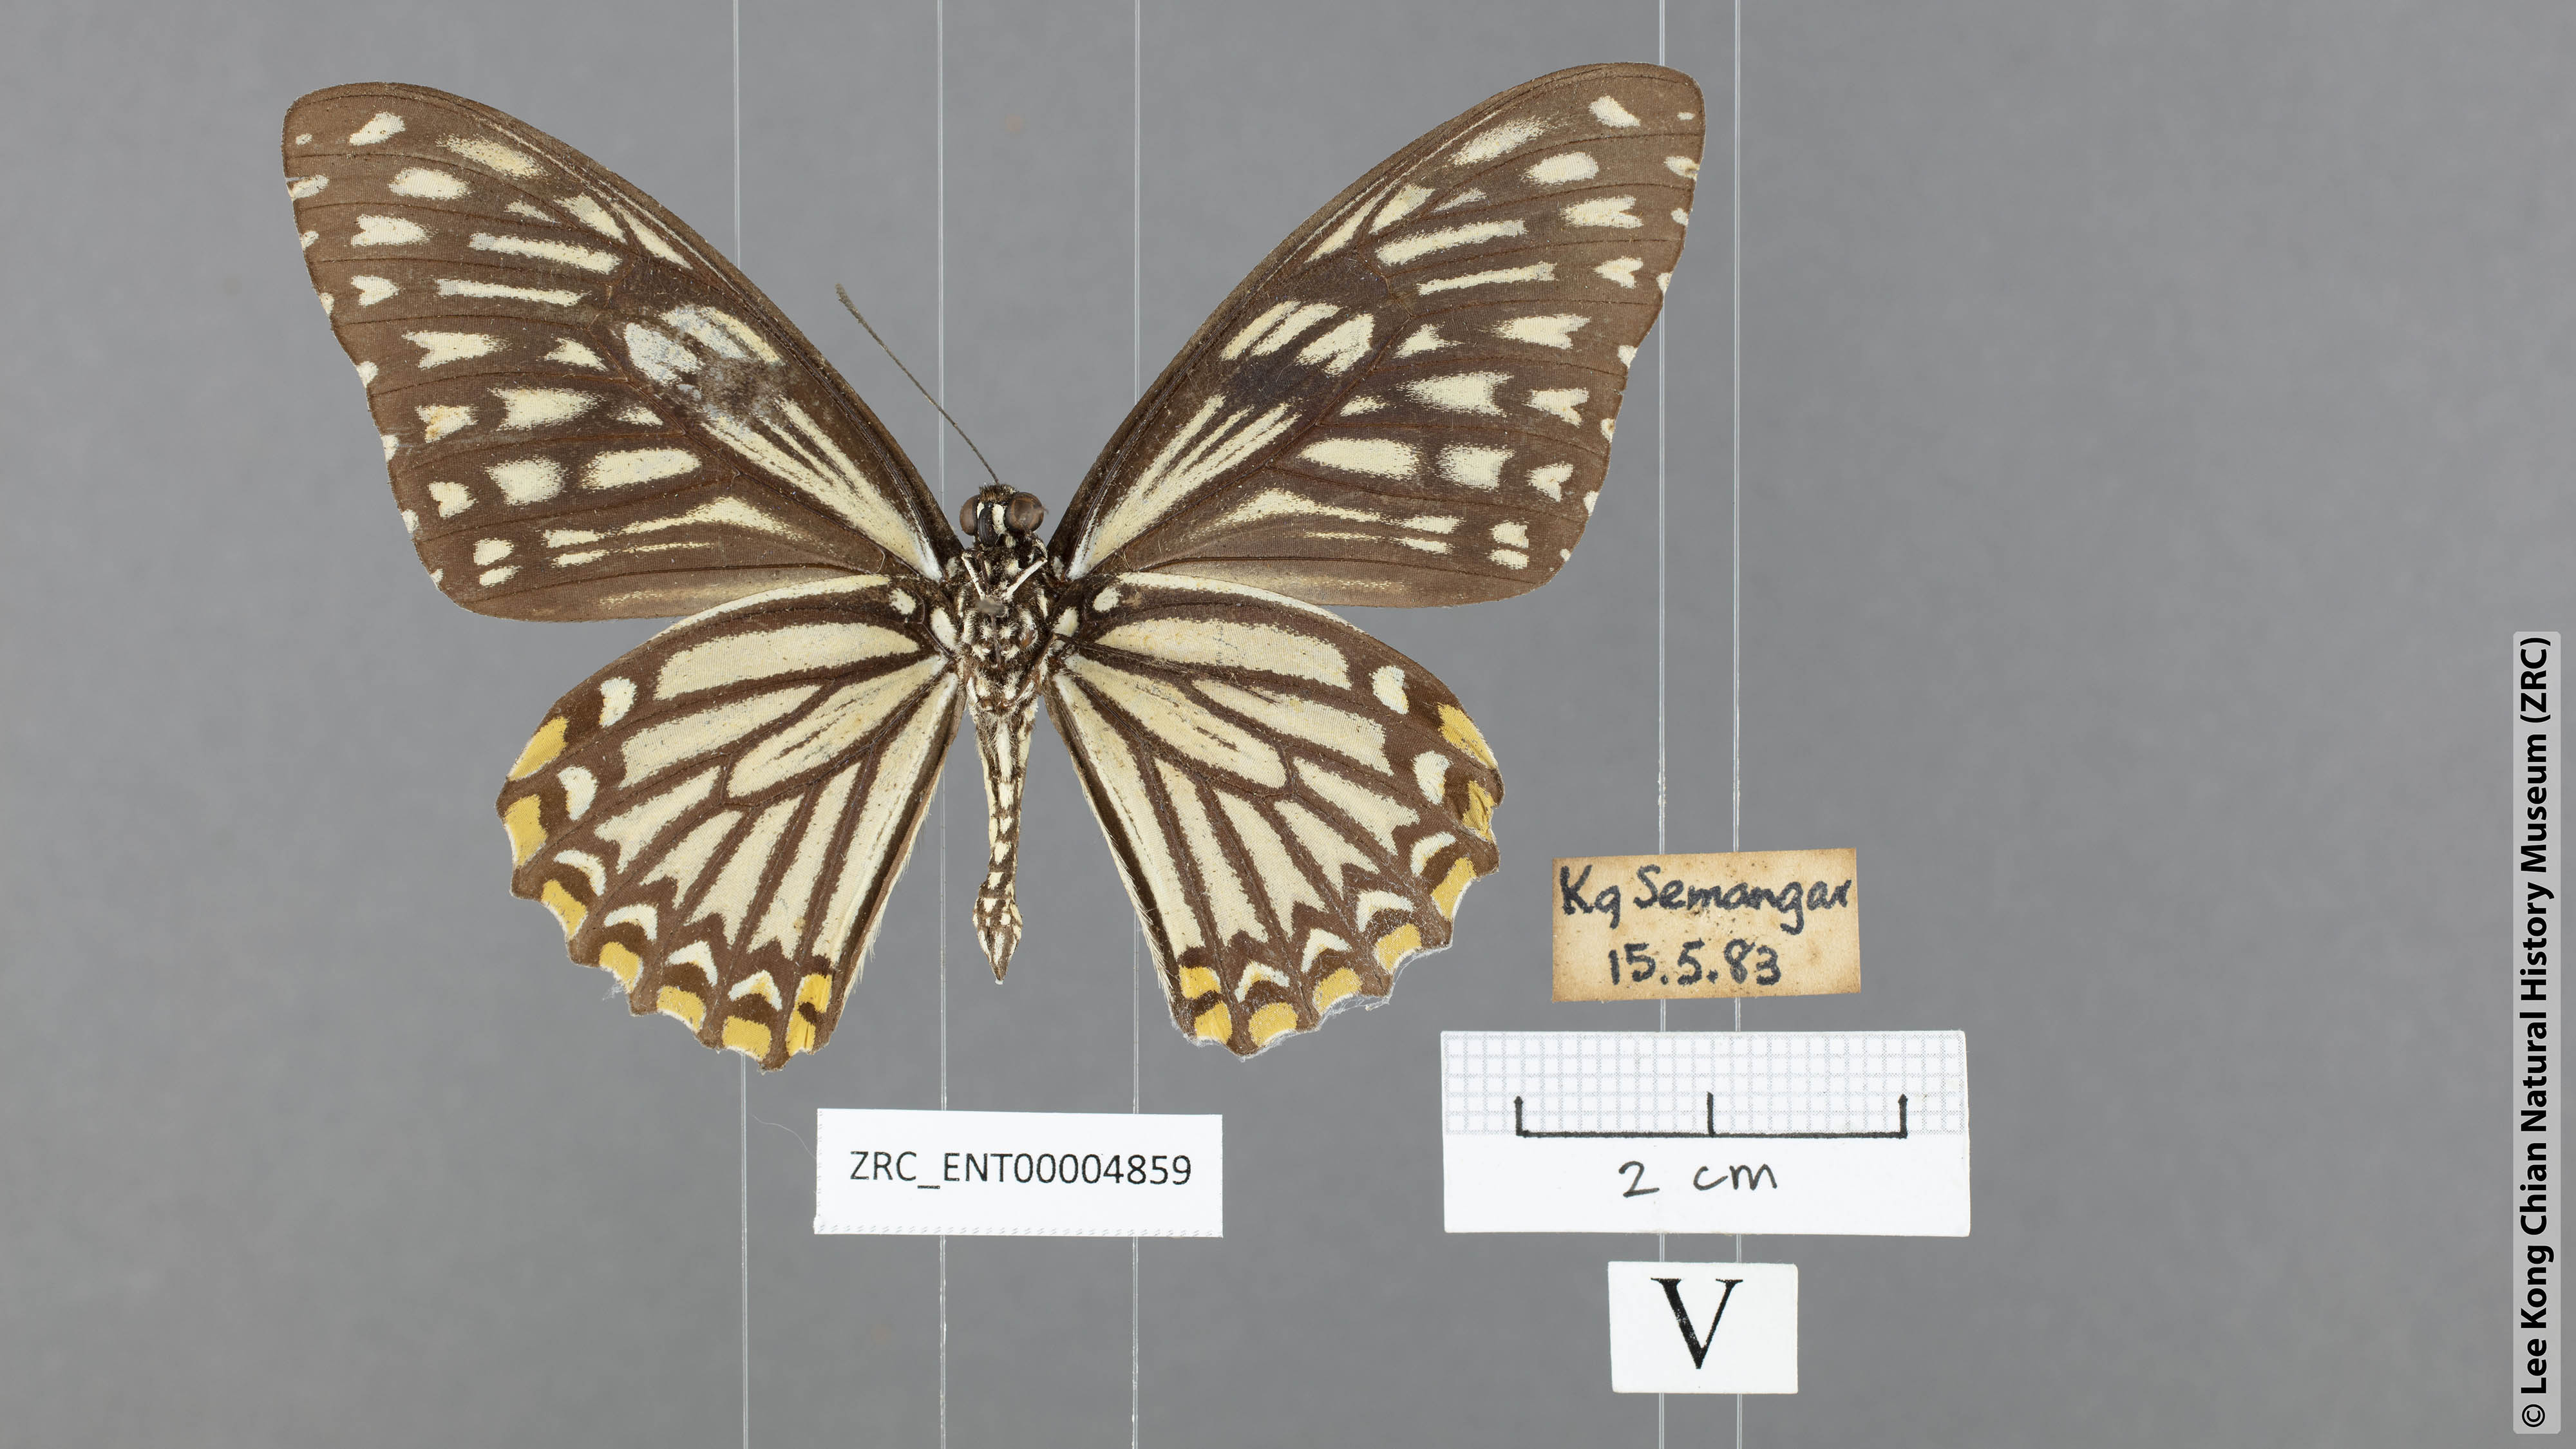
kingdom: Animalia
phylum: Arthropoda
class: Insecta
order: Lepidoptera
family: Papilionidae
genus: Chilasa
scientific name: Chilasa clytia
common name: Common mime
